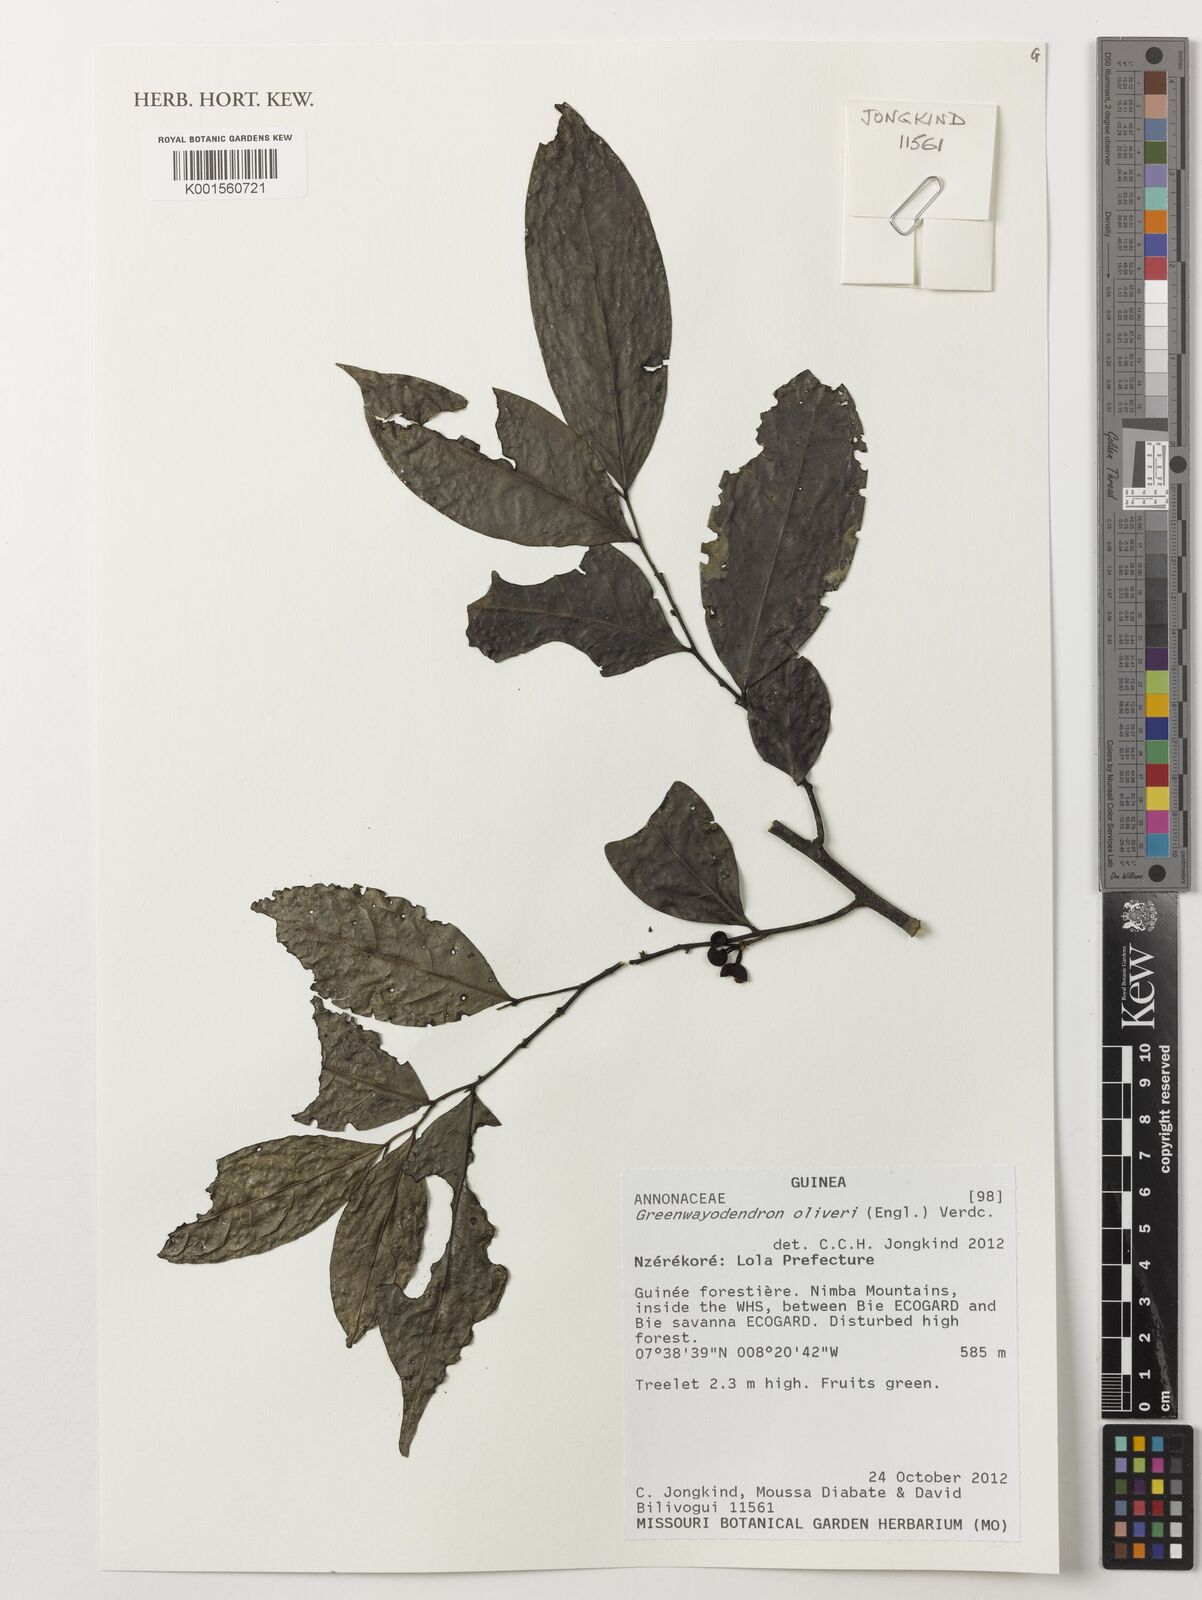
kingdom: Plantae
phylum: Tracheophyta
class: Magnoliopsida
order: Magnoliales
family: Annonaceae
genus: Greenwayodendron
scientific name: Greenwayodendron oliveri
